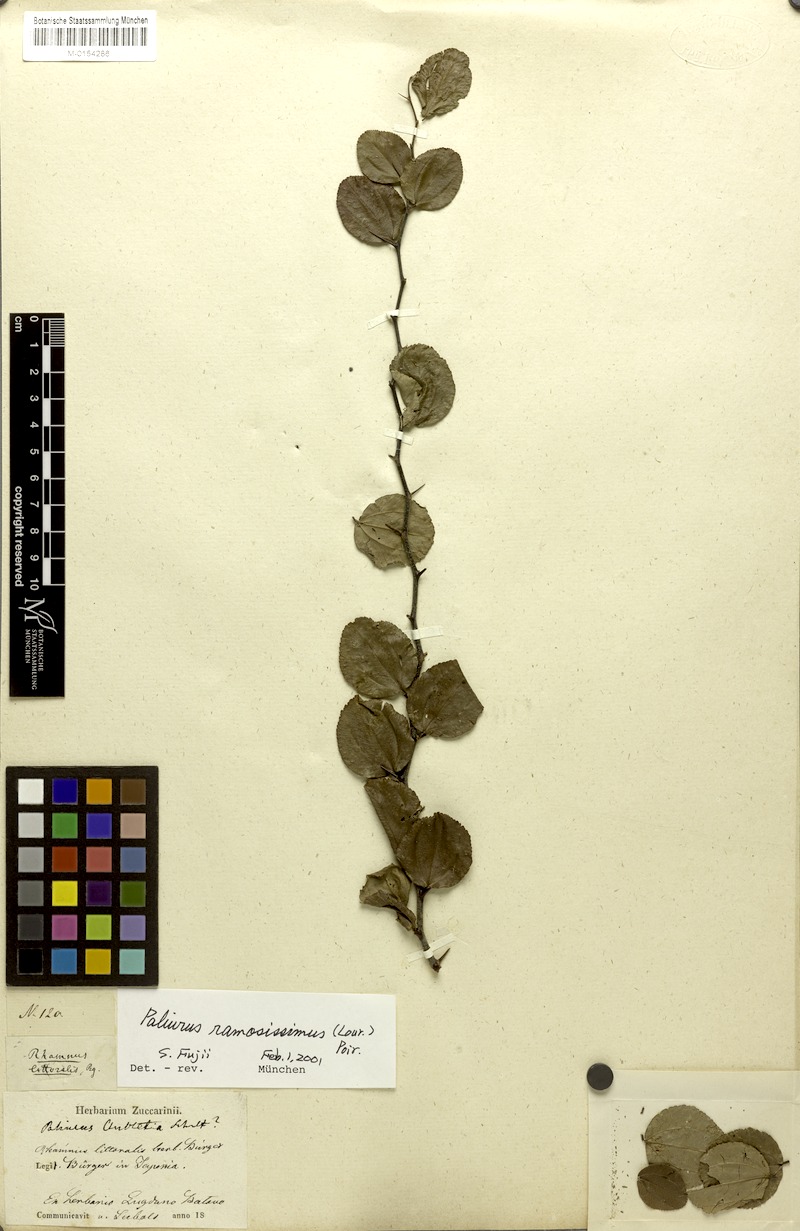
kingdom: Plantae
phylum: Tracheophyta
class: Magnoliopsida
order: Rosales
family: Rhamnaceae
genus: Paliurus
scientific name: Paliurus ramosissimus
